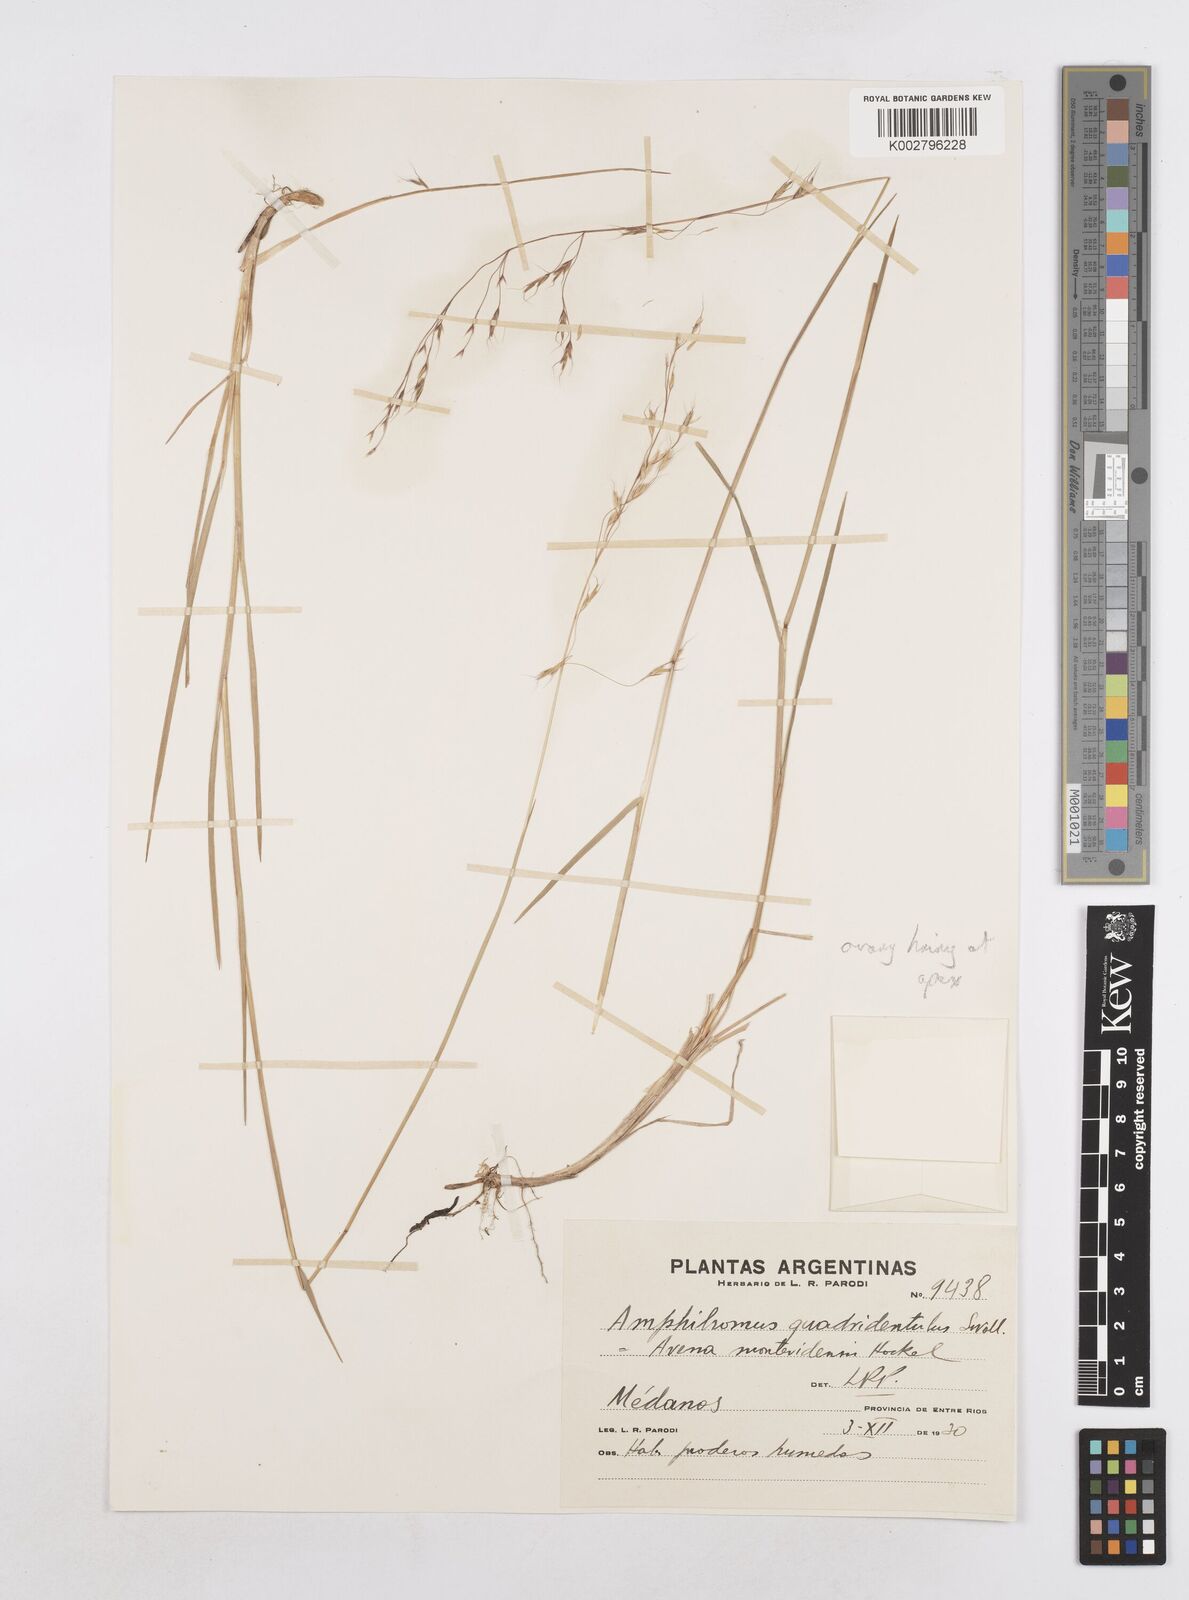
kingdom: Plantae
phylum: Tracheophyta
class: Liliopsida
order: Poales
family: Poaceae
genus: Helictotrichon
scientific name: Helictotrichon
